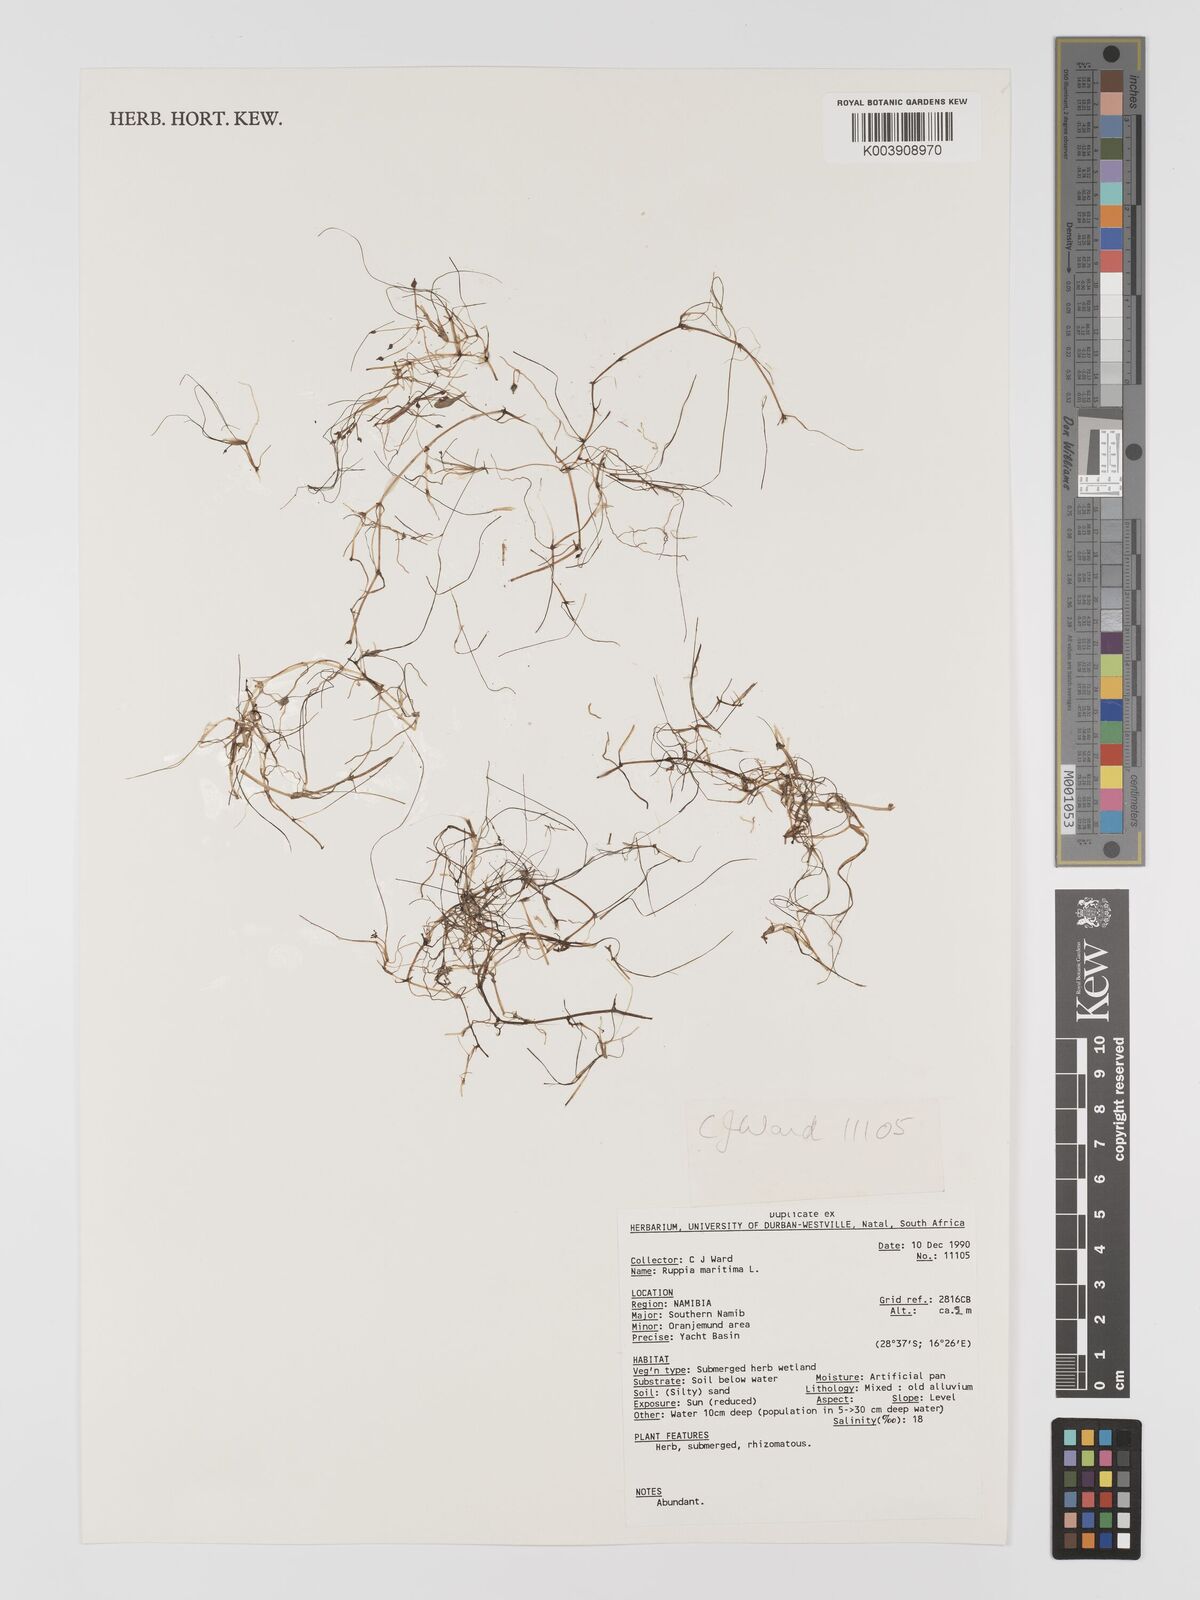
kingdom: Plantae
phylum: Tracheophyta
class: Liliopsida
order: Alismatales
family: Ruppiaceae
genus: Ruppia
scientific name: Ruppia maritima
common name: Beaked tasselweed
